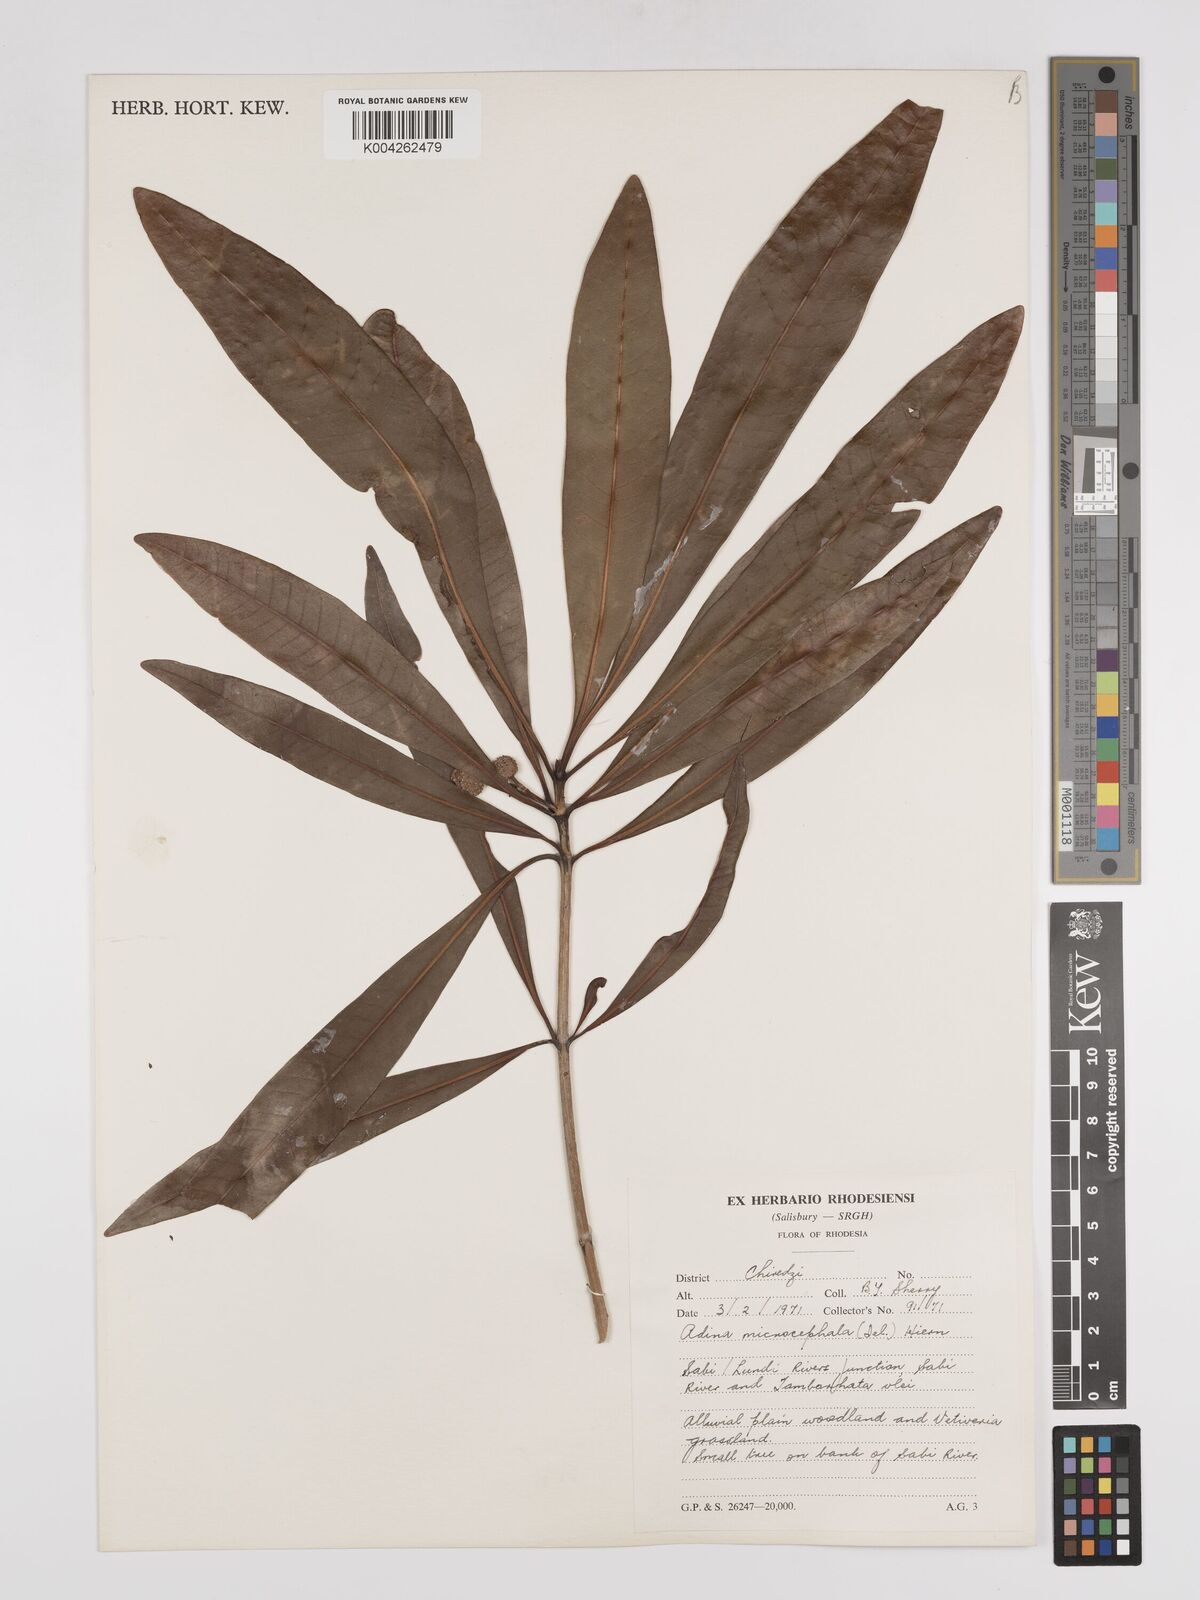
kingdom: Plantae
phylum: Tracheophyta
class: Magnoliopsida
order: Gentianales
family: Rubiaceae
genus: Breonadia
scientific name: Breonadia salicina
